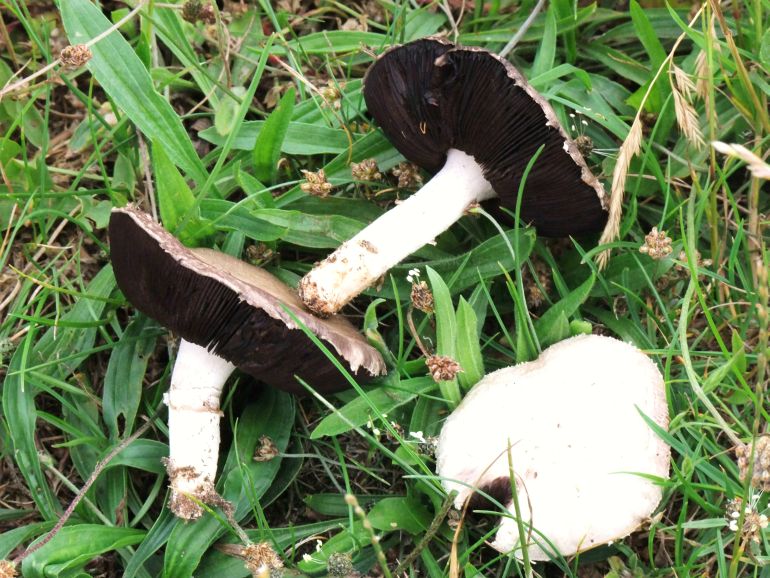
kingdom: Fungi
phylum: Basidiomycota
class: Agaricomycetes
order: Agaricales
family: Agaricaceae
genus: Agaricus
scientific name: Agaricus campestris
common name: mark-champignon
